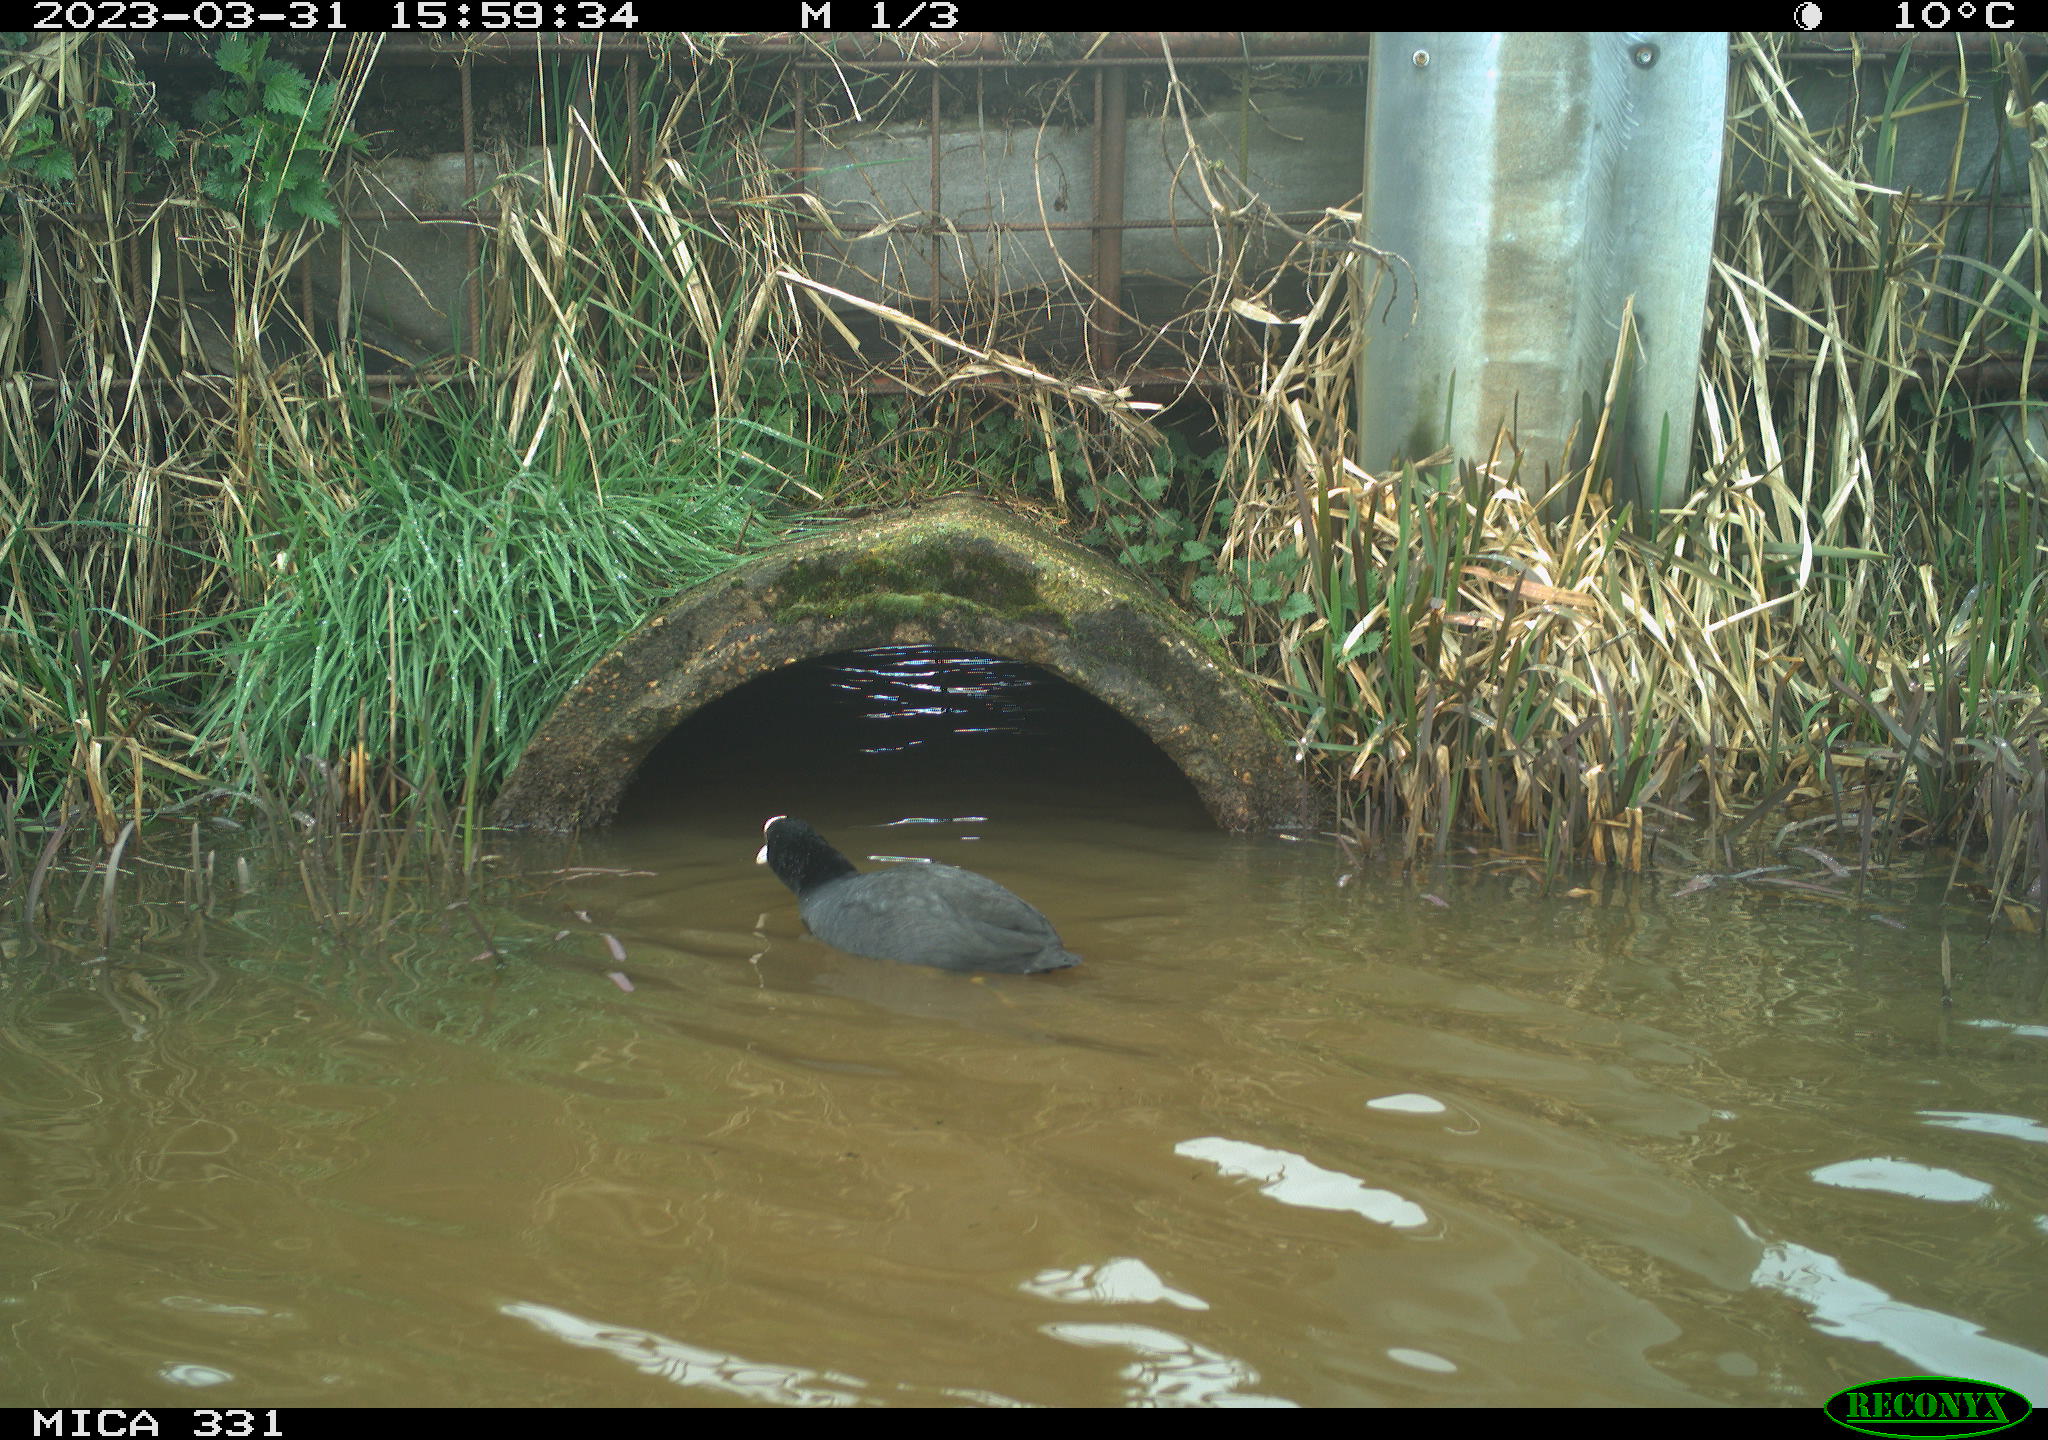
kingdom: Animalia
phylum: Chordata
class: Aves
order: Gruiformes
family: Rallidae
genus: Gallinula
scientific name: Gallinula chloropus
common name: Common moorhen
